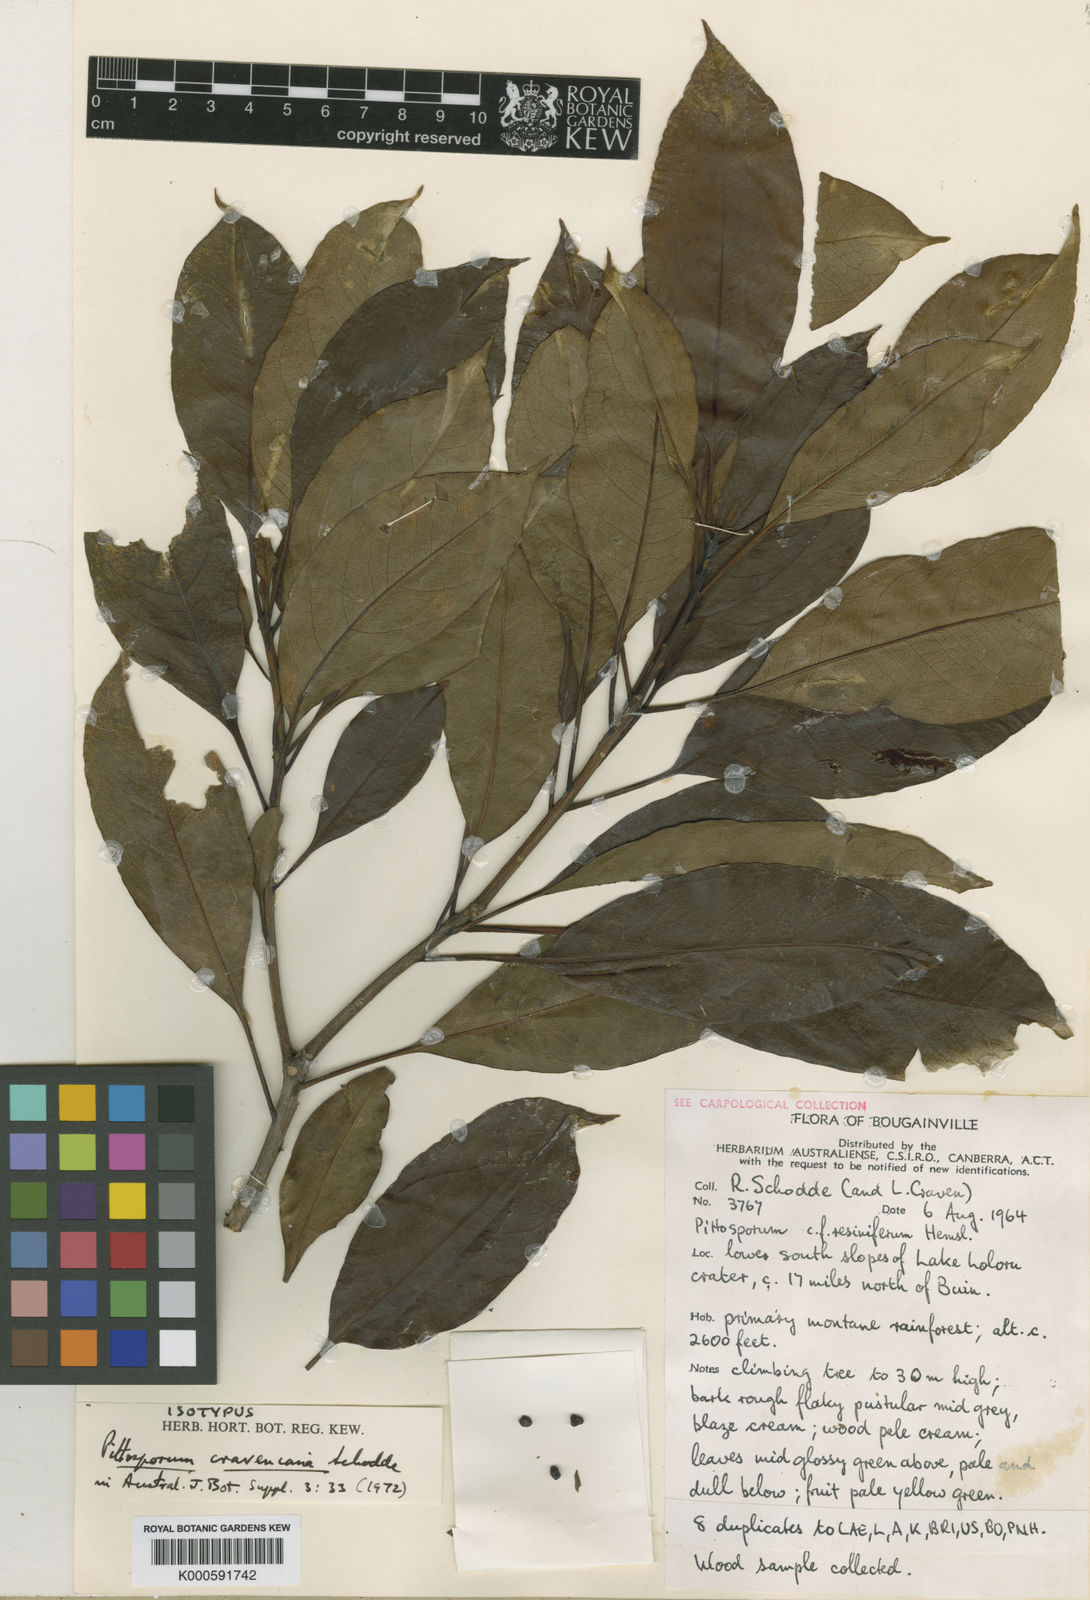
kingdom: Plantae
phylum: Tracheophyta
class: Magnoliopsida
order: Apiales
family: Pittosporaceae
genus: Pittosporum
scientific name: Pittosporum cravenianum
